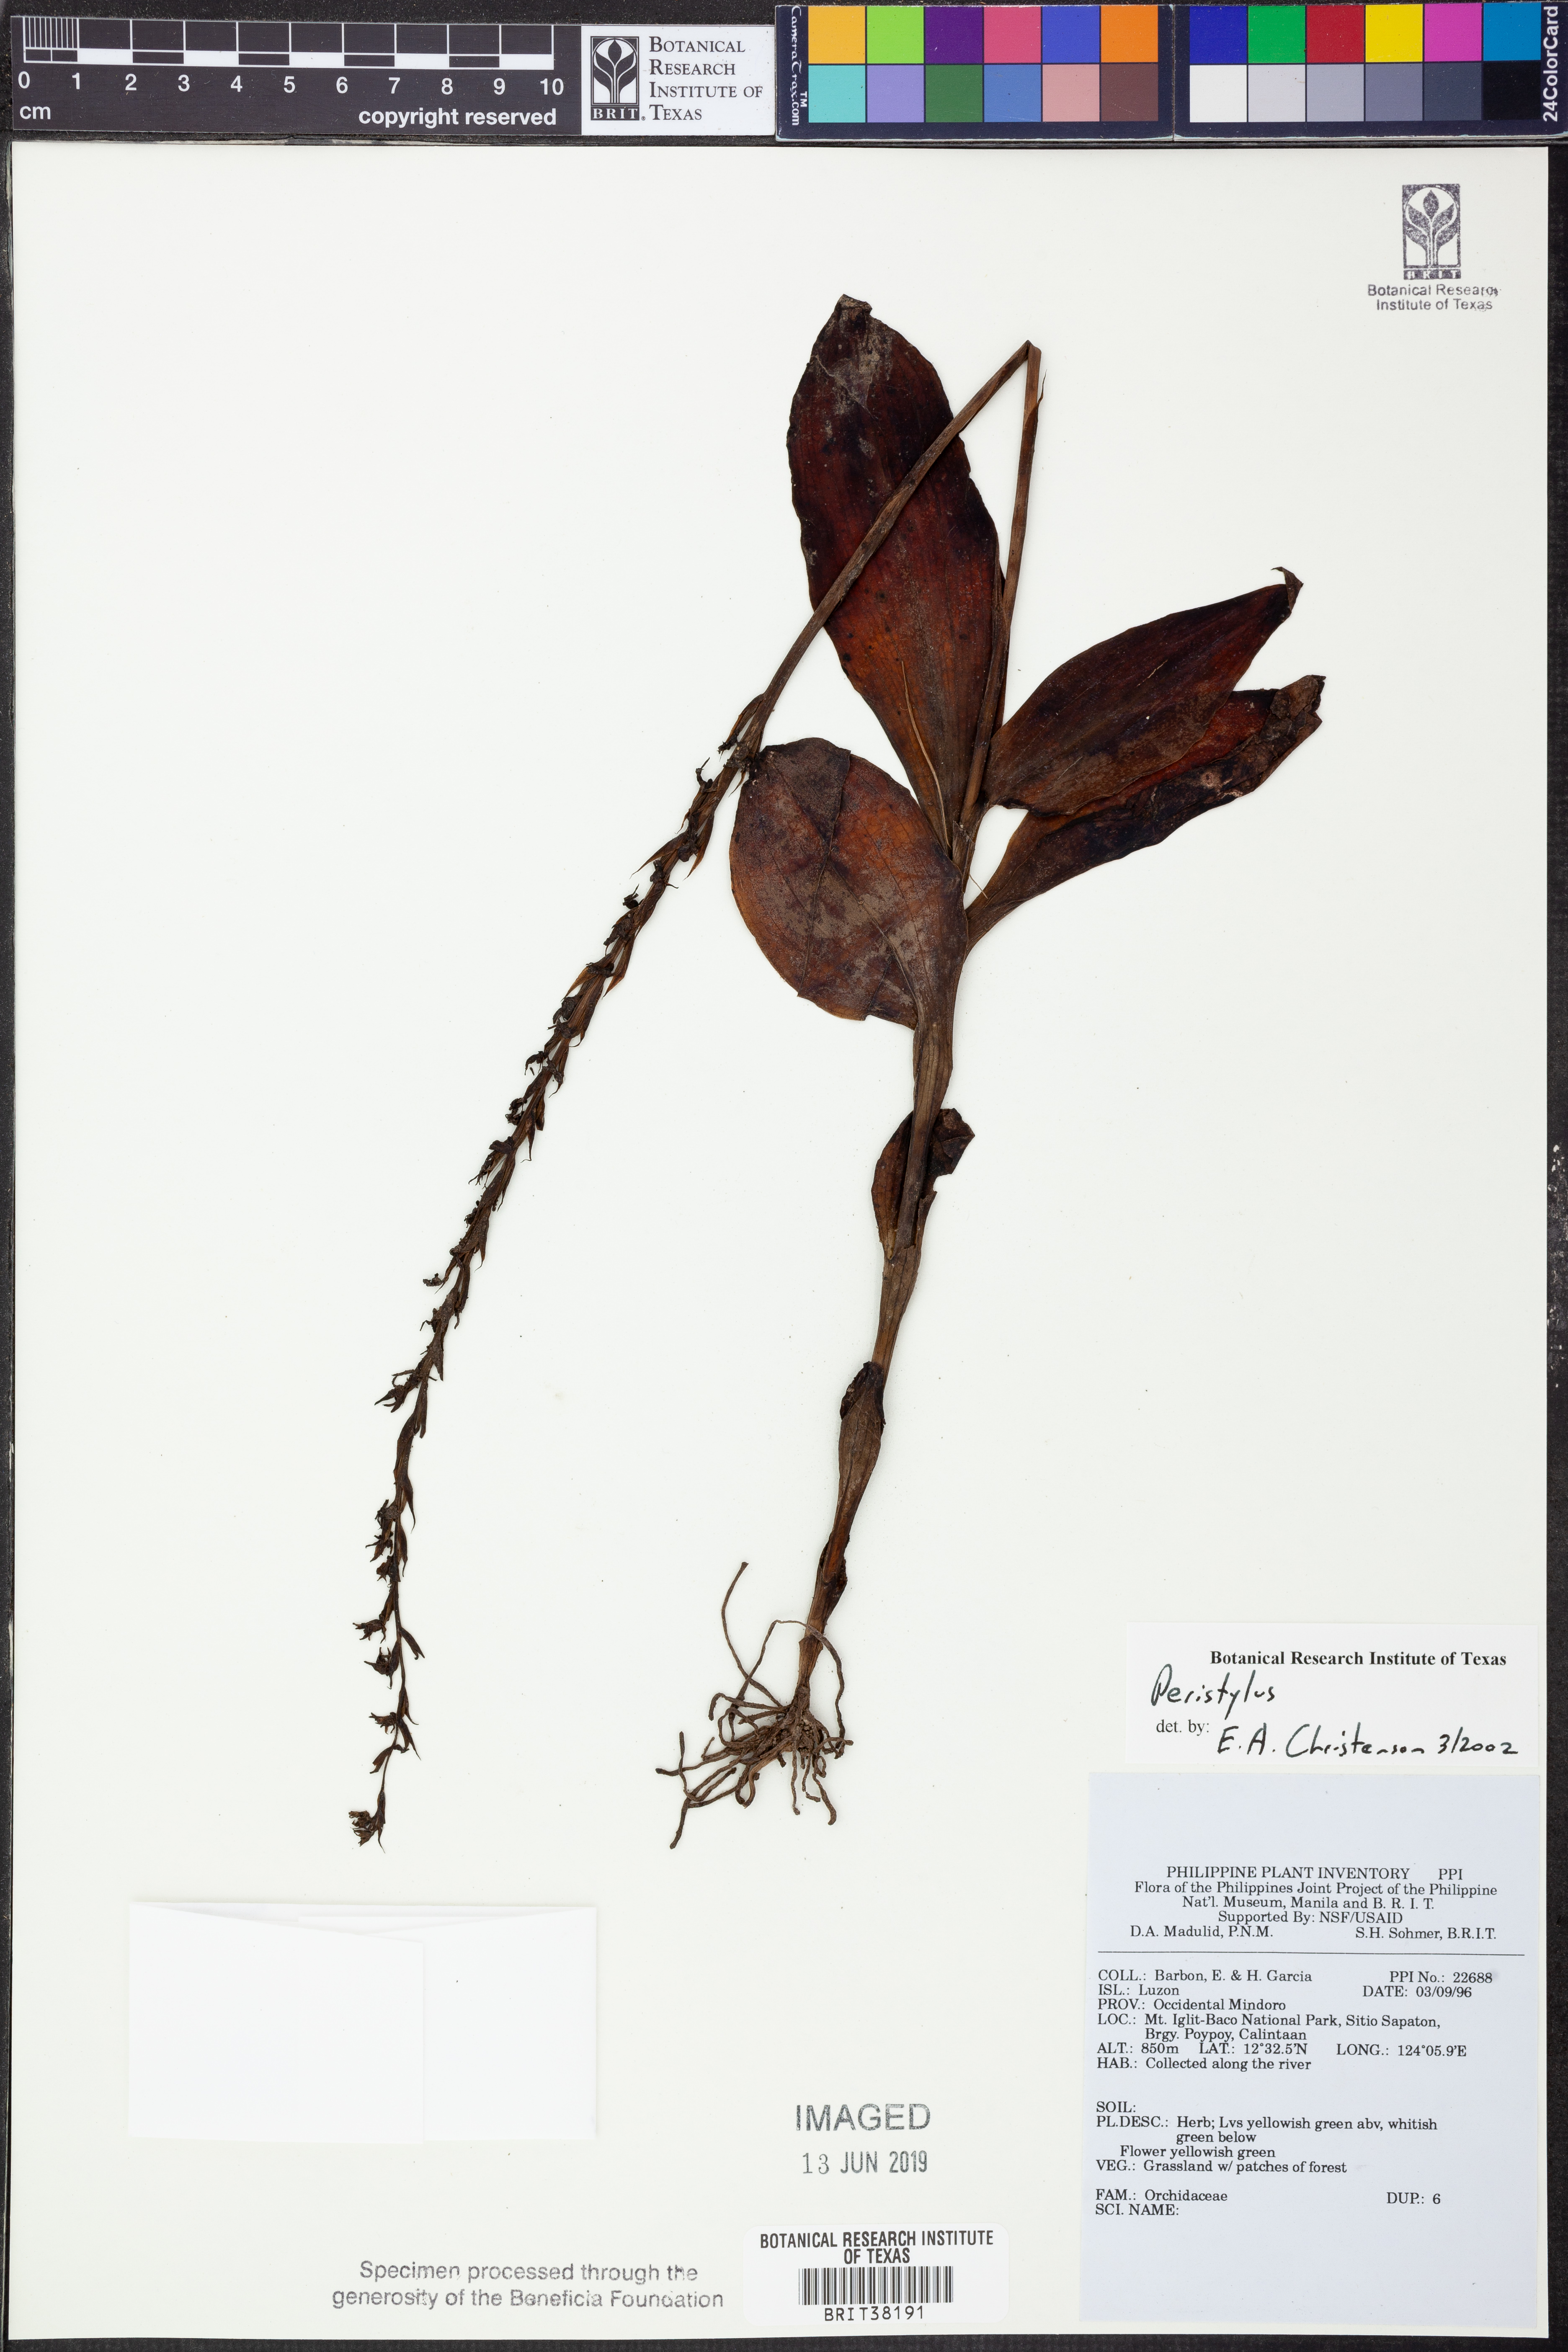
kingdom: Plantae
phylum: Tracheophyta
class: Liliopsida
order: Asparagales
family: Orchidaceae
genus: Peristylus
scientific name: Peristylus
